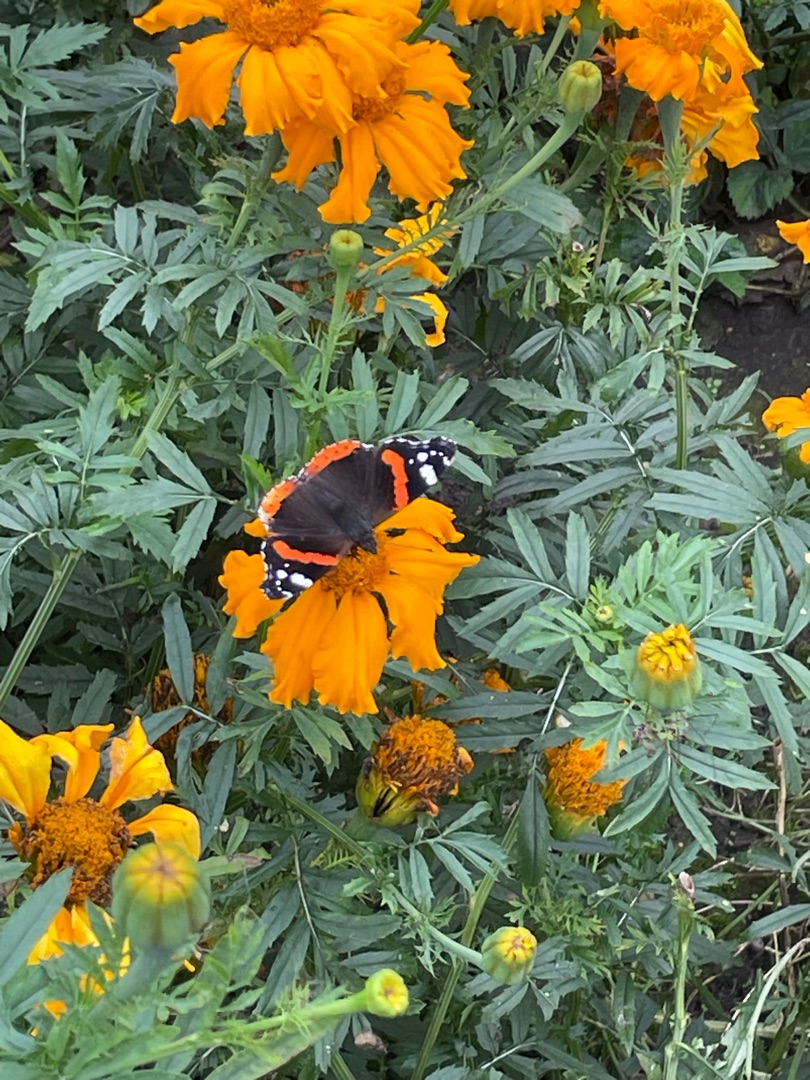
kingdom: Animalia
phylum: Arthropoda
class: Insecta
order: Lepidoptera
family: Nymphalidae
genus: Vanessa
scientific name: Vanessa atalanta
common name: Admiral
